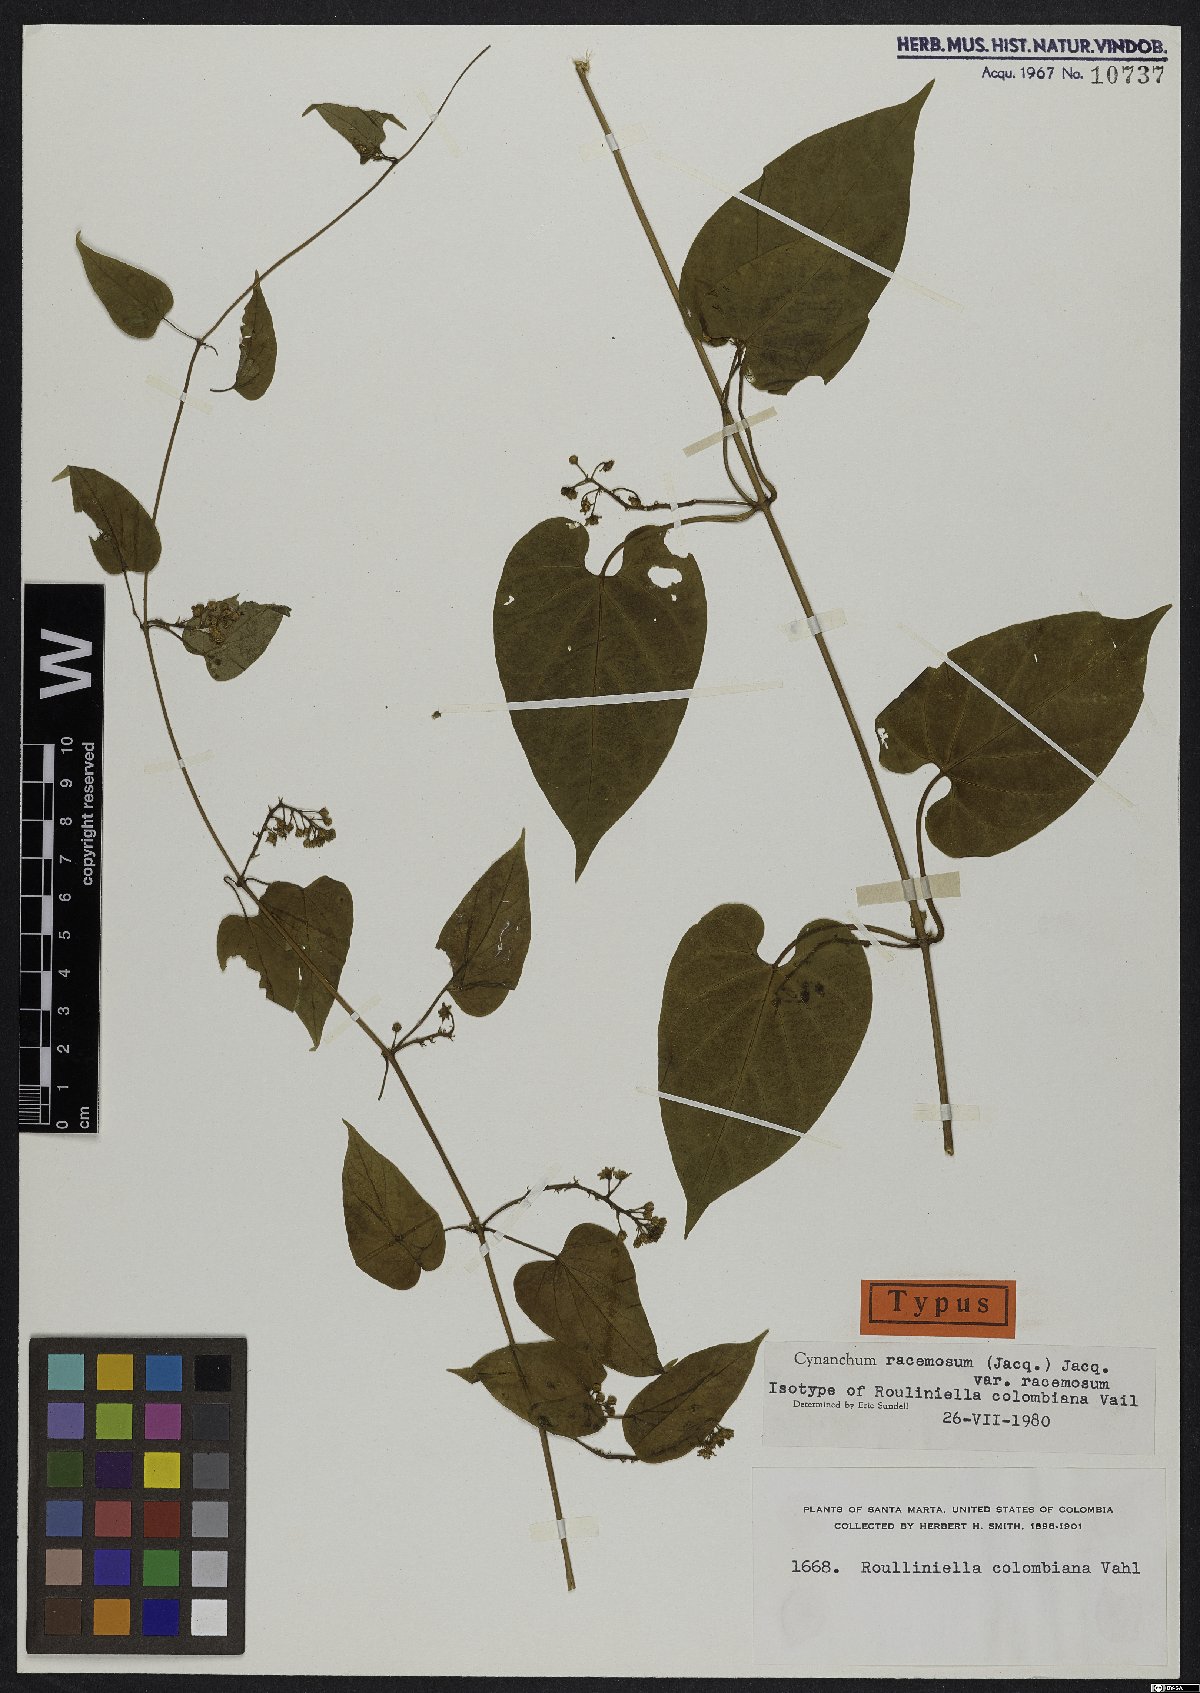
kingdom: Plantae
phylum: Tracheophyta
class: Magnoliopsida
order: Gentianales
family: Apocynaceae
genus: Cynanchum
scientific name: Cynanchum racemosum
